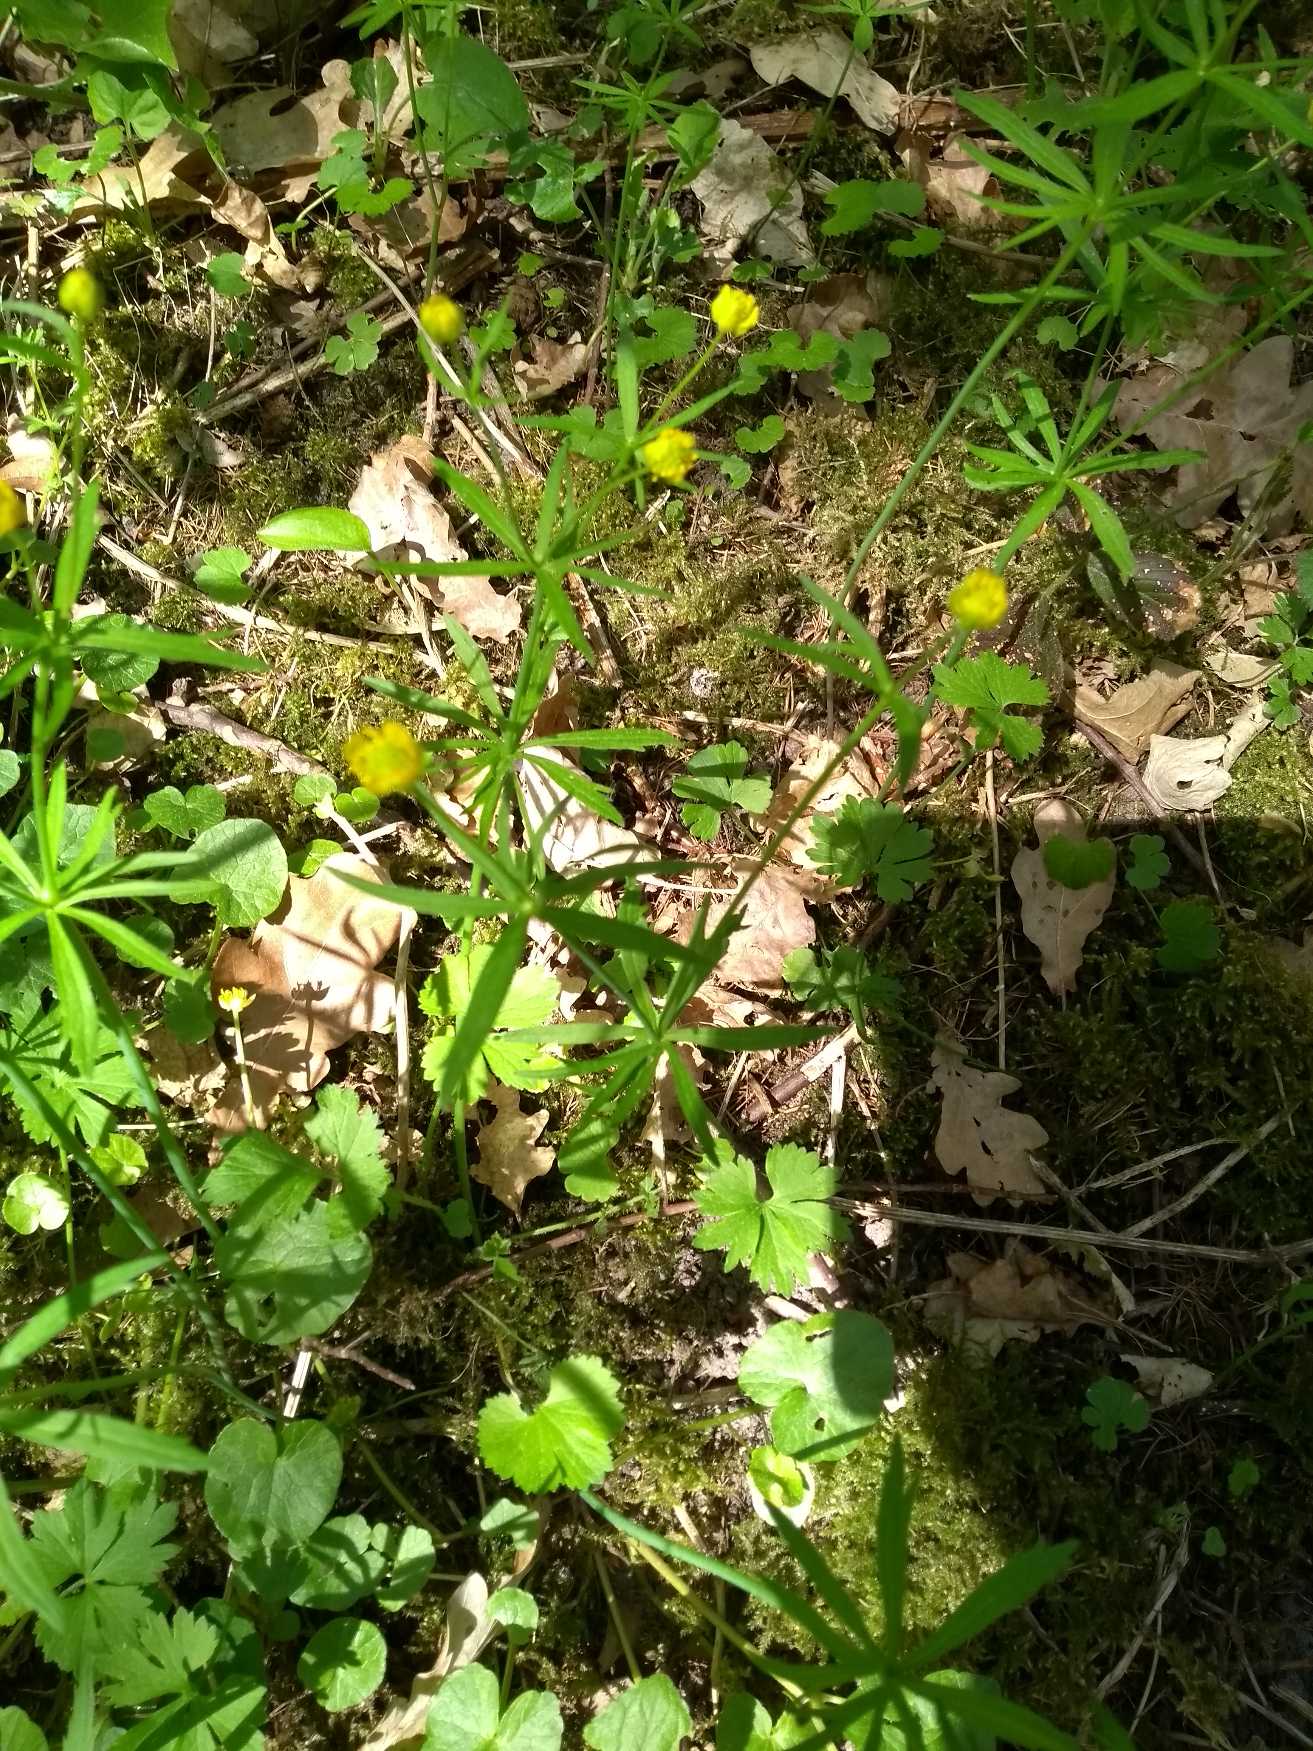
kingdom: Plantae
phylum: Tracheophyta
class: Magnoliopsida
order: Ranunculales
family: Ranunculaceae
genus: Ranunculus
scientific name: Ranunculus auricomus
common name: Nyrebladet ranunkel
